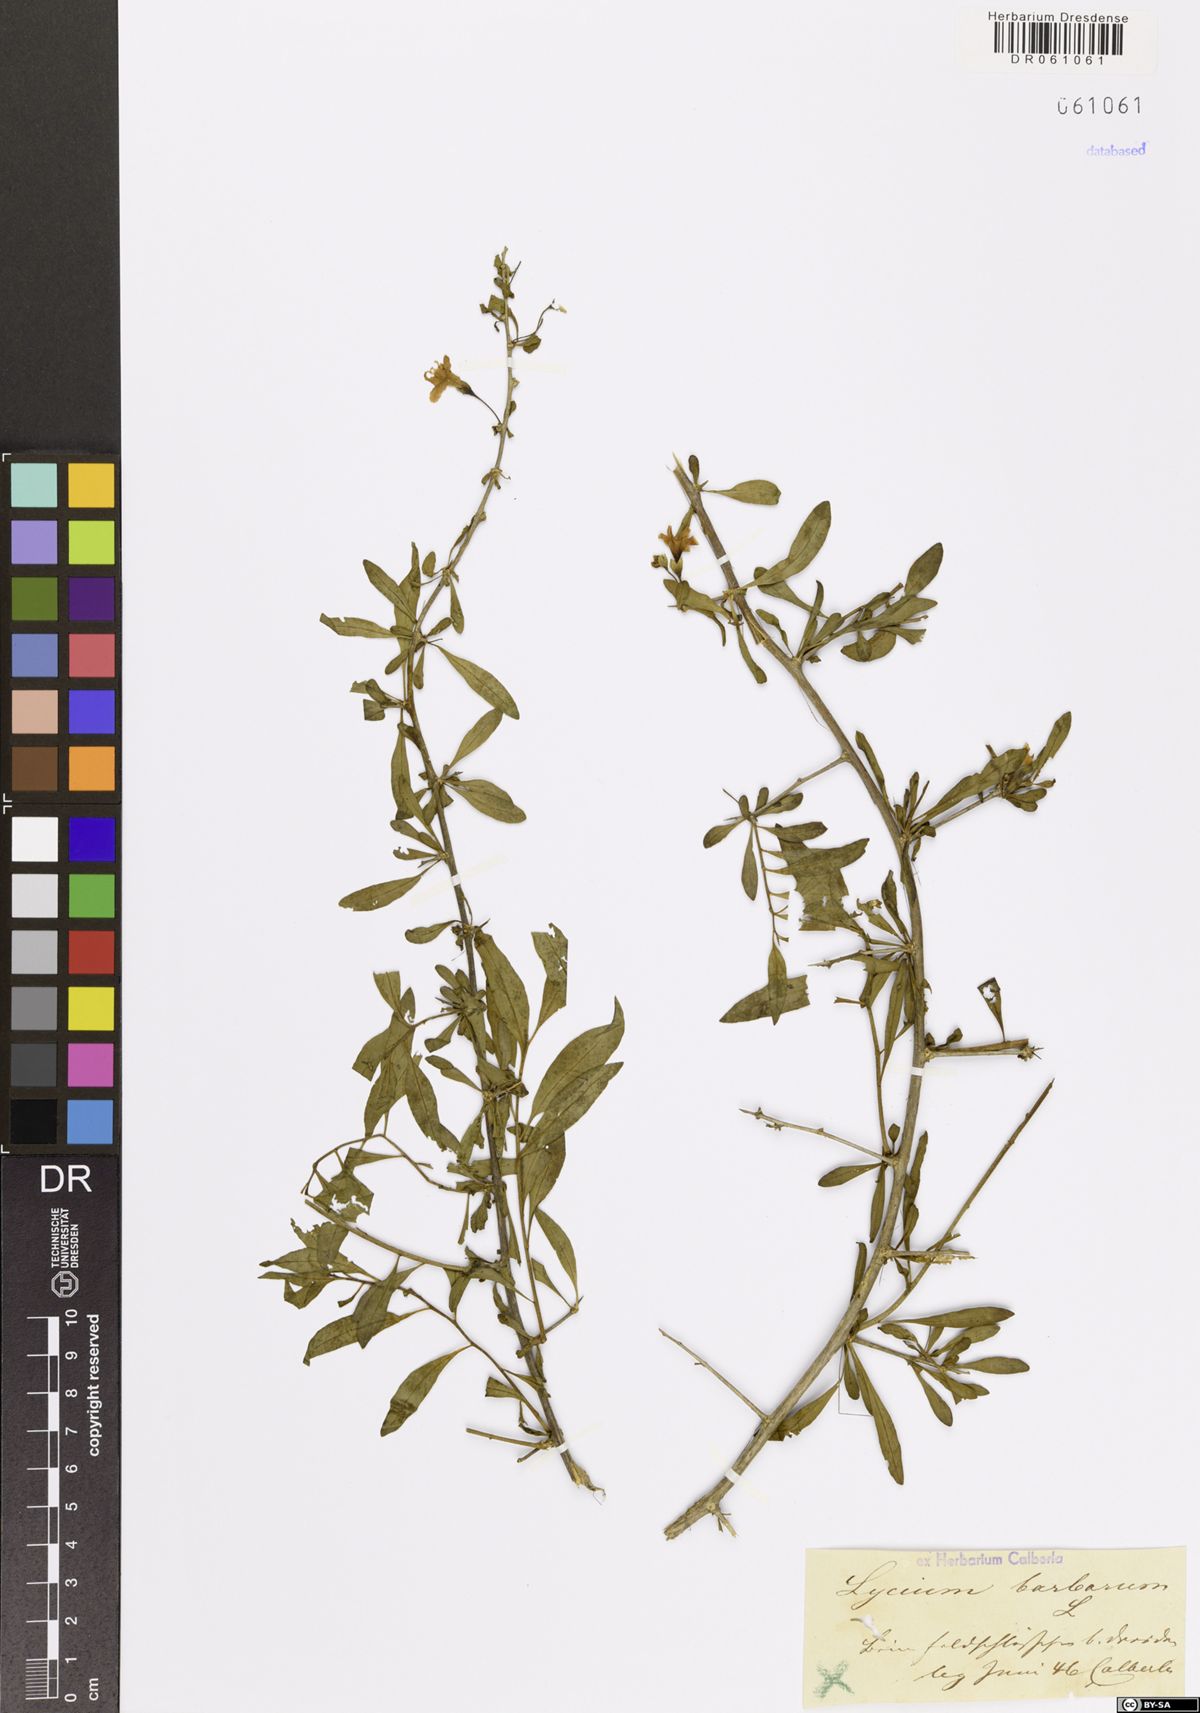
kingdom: Plantae
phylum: Tracheophyta
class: Magnoliopsida
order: Solanales
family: Solanaceae
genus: Lycium
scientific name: Lycium barbarum
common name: Duke of argyll's teaplant
